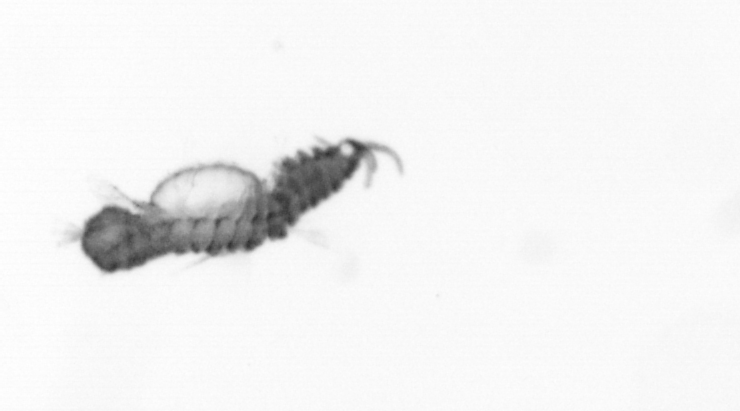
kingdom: Animalia
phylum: Annelida
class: Polychaeta
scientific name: Polychaeta
